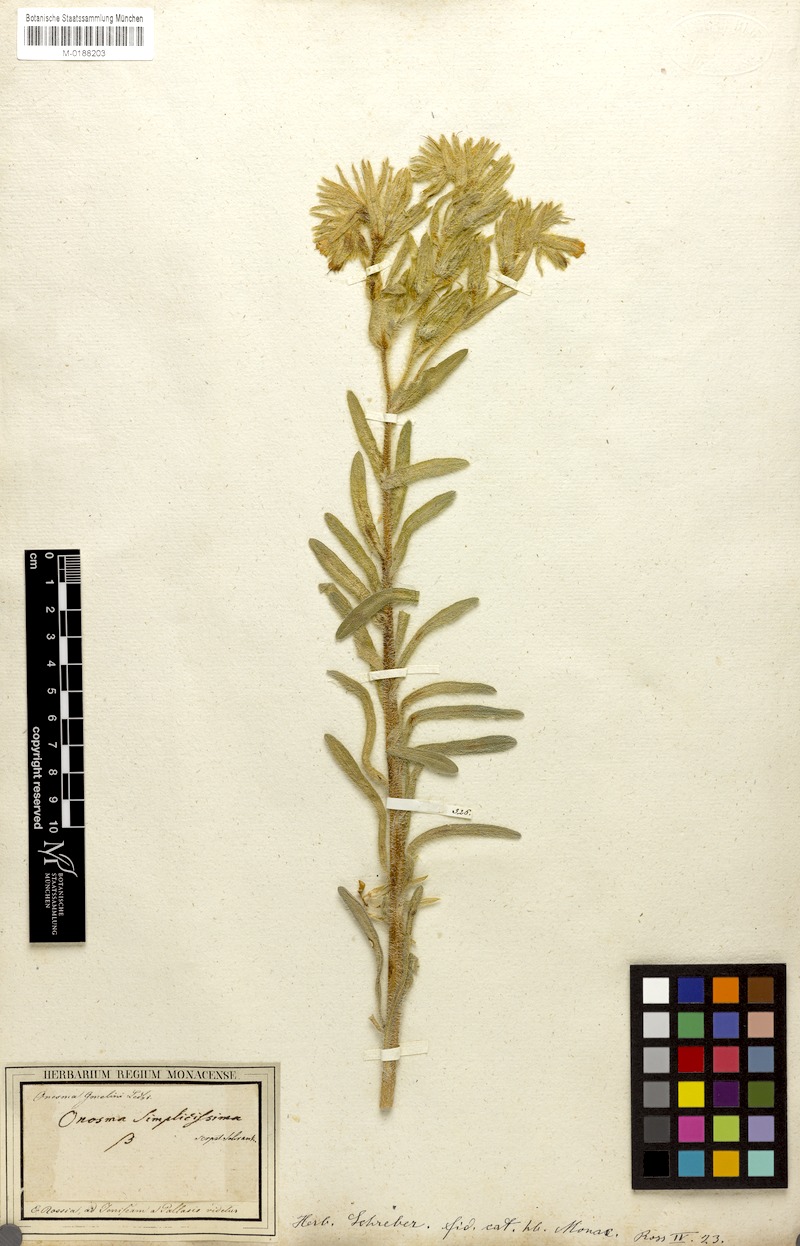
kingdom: Plantae
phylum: Tracheophyta
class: Magnoliopsida
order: Boraginales
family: Boraginaceae
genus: Onosma
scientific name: Onosma microcarpa
